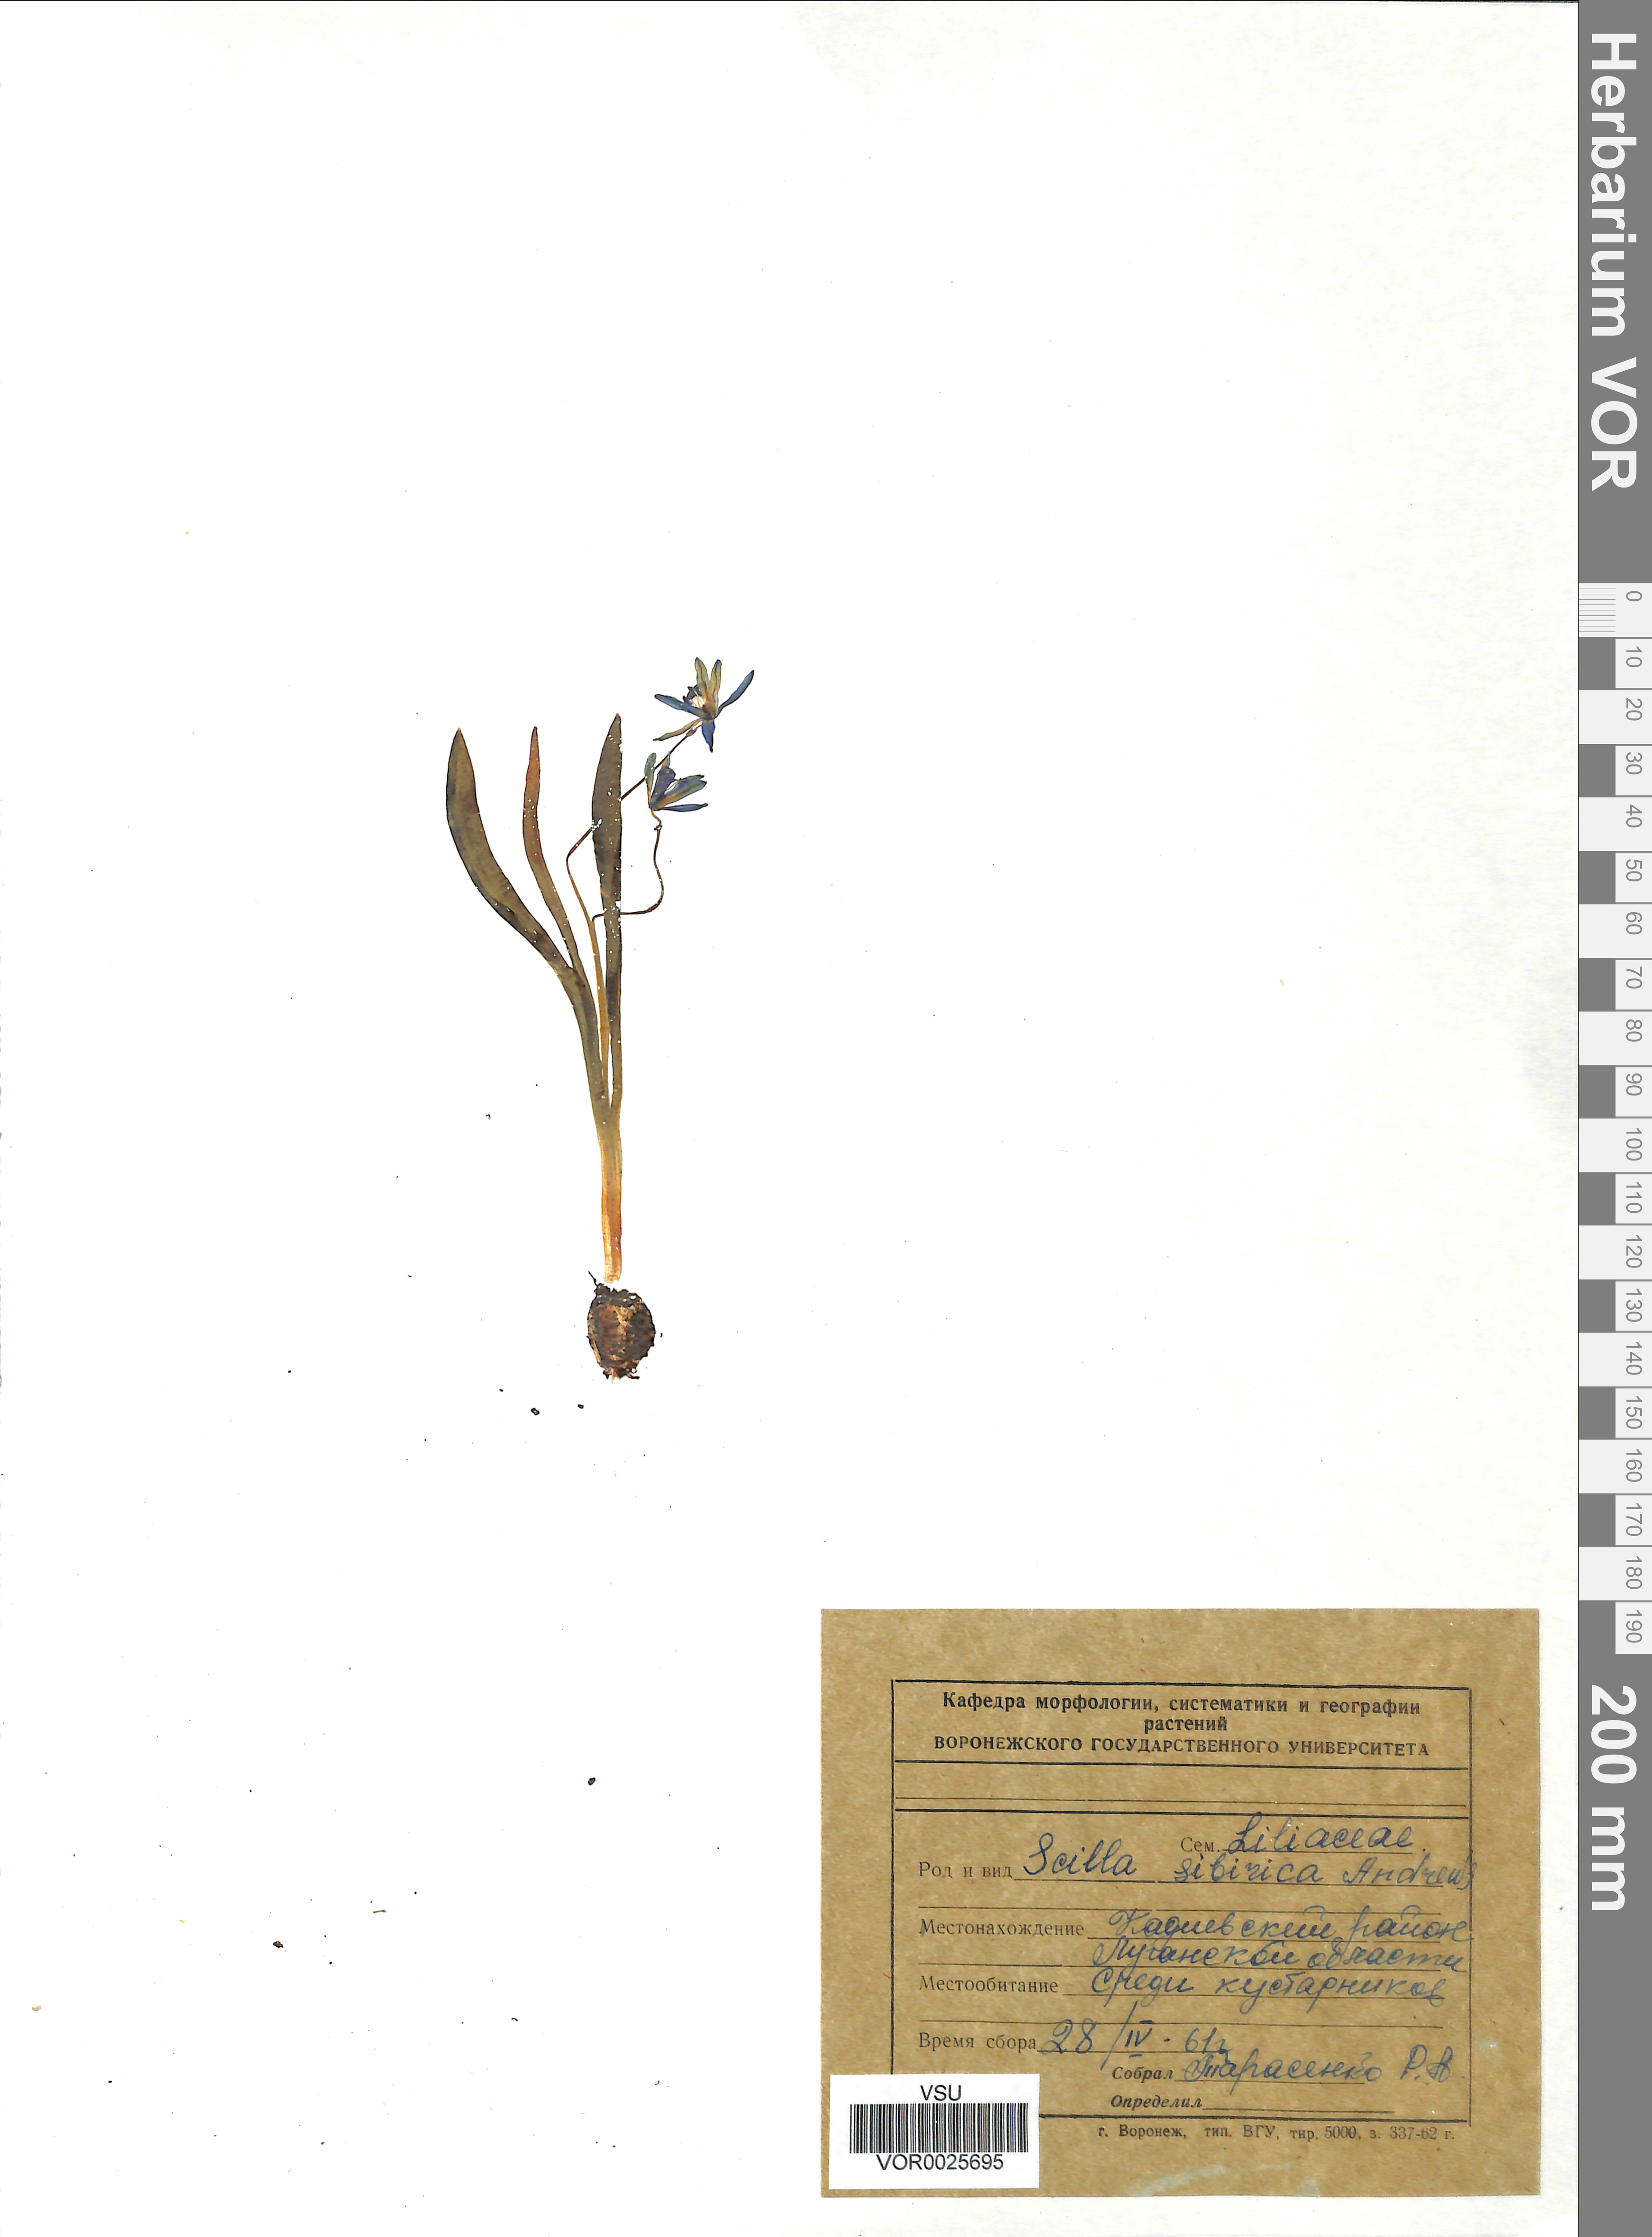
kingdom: Plantae
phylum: Tracheophyta
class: Liliopsida
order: Asparagales
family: Asparagaceae
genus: Scilla
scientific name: Scilla siberica
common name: Siberian squill
